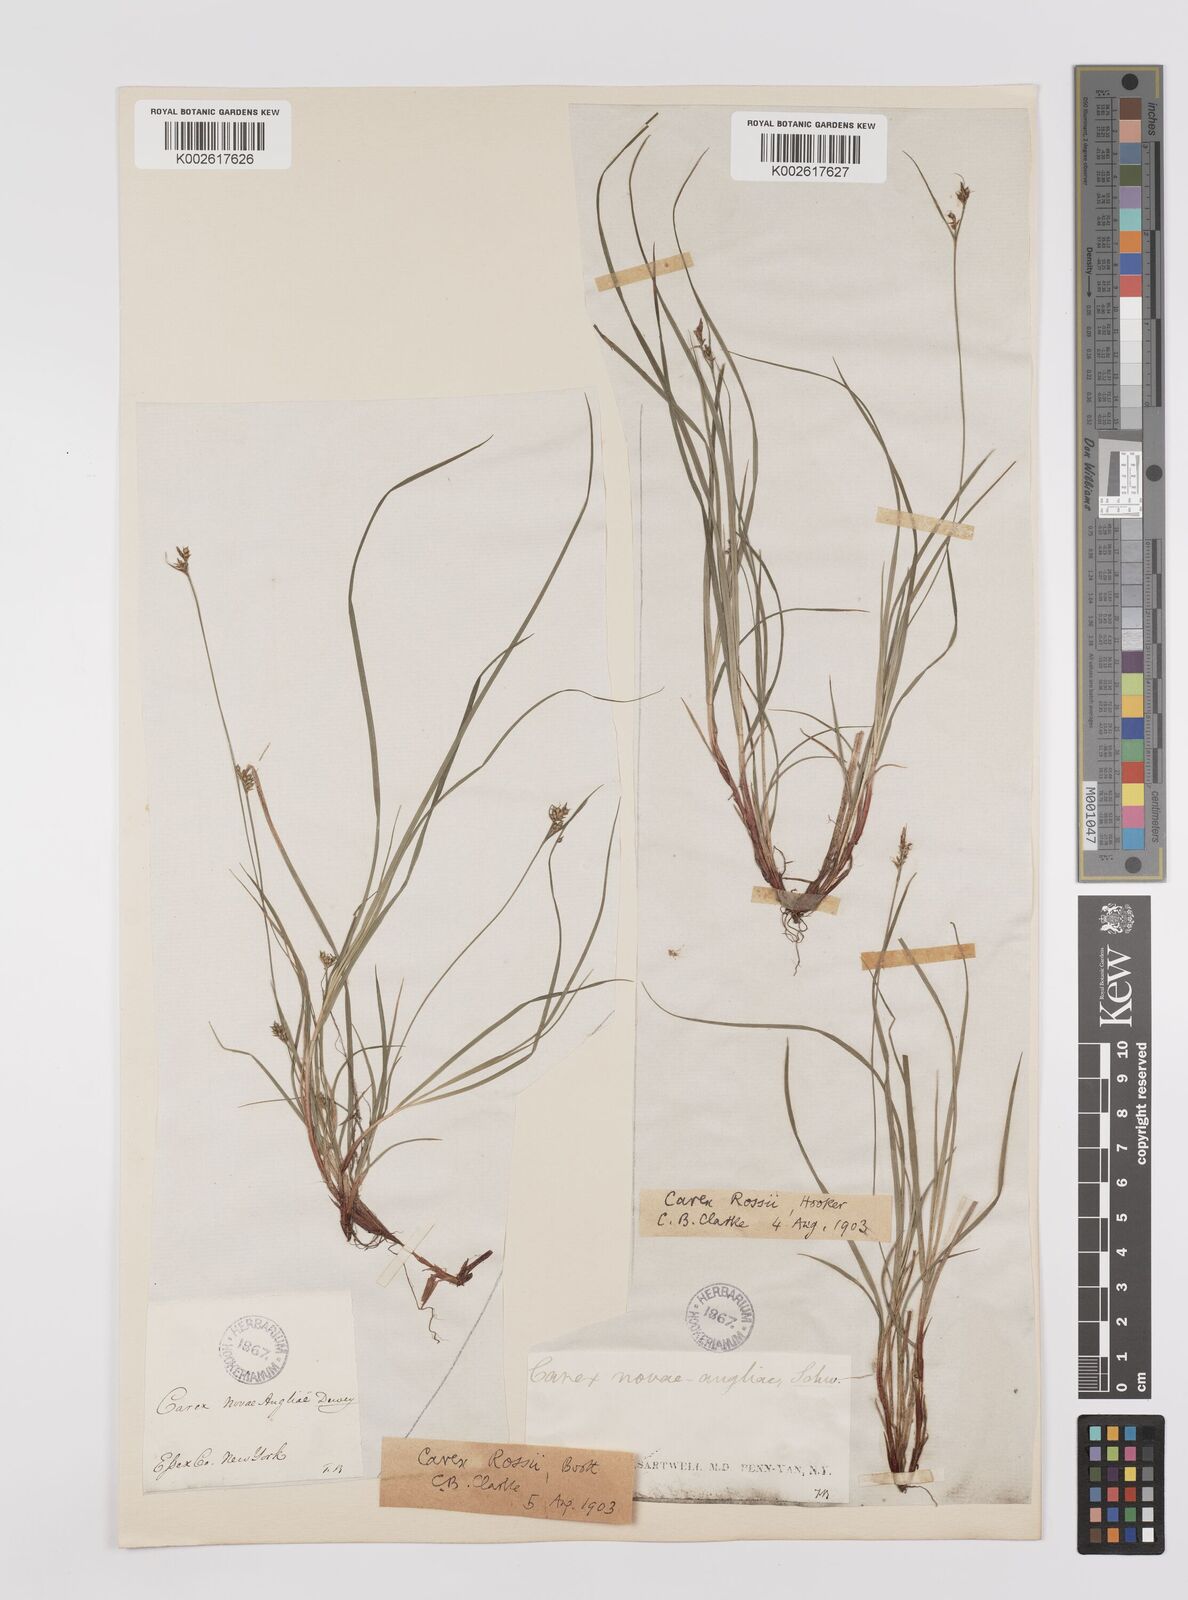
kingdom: Plantae
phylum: Tracheophyta
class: Liliopsida
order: Poales
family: Cyperaceae
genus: Carex
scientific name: Carex rossii
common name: Ross' sedge
